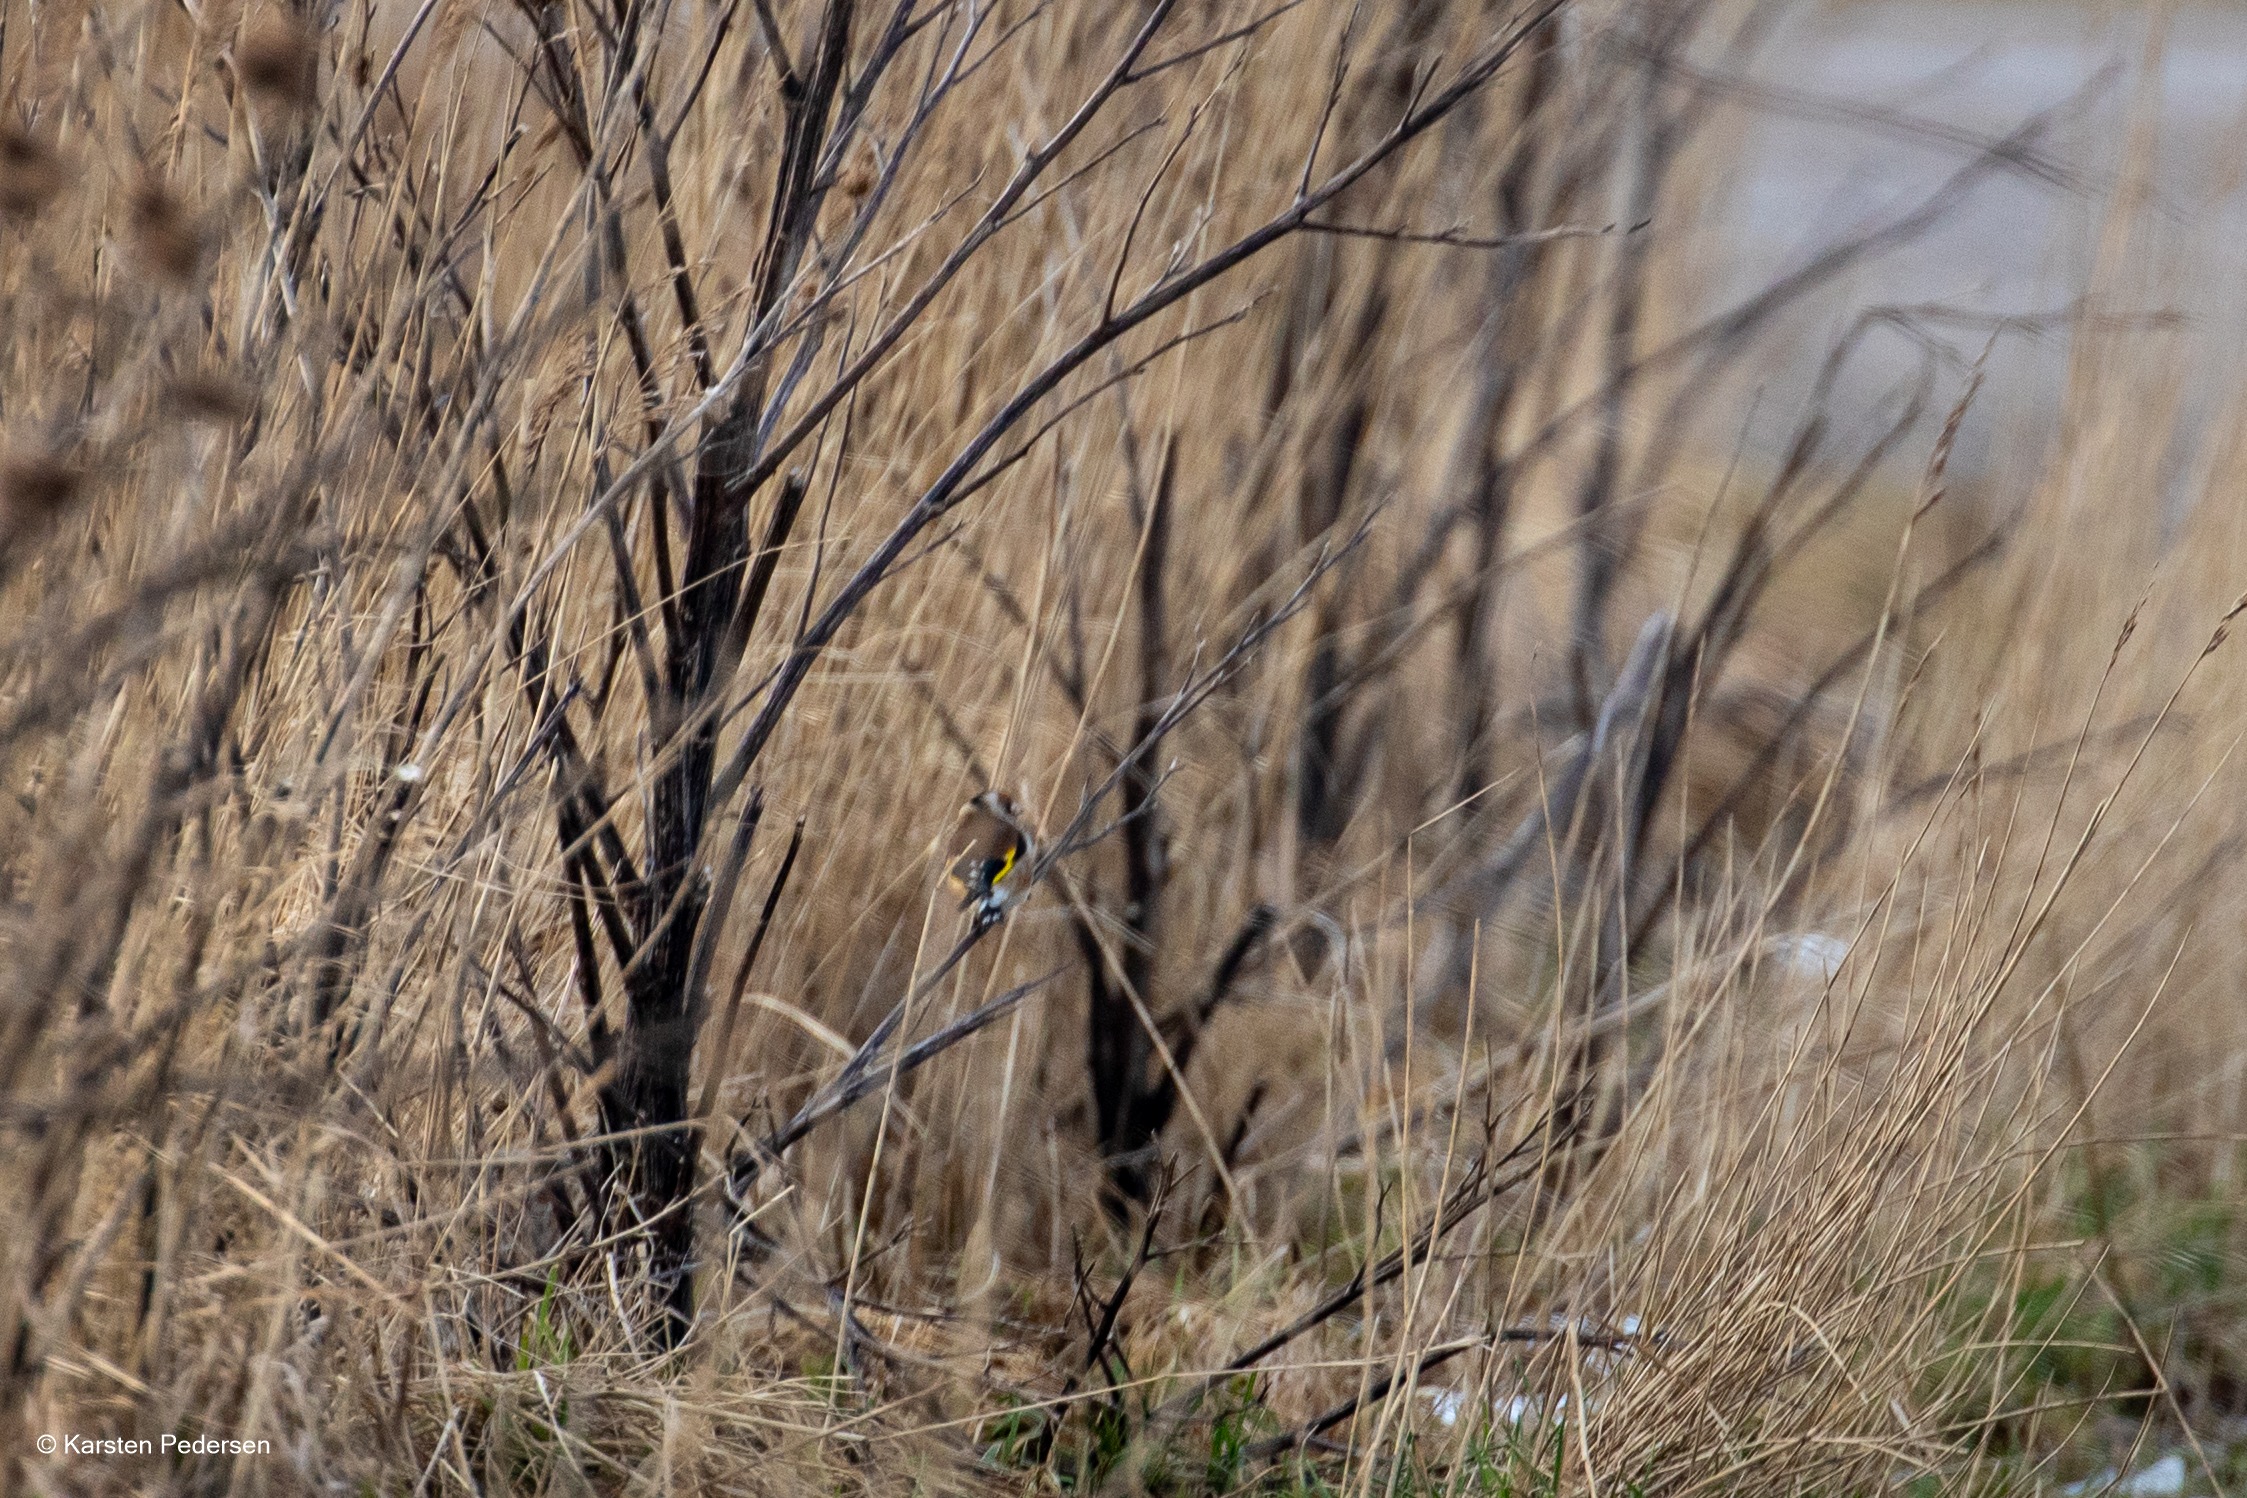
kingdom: Animalia
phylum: Chordata
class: Aves
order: Passeriformes
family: Fringillidae
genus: Carduelis
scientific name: Carduelis carduelis
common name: Stillits
